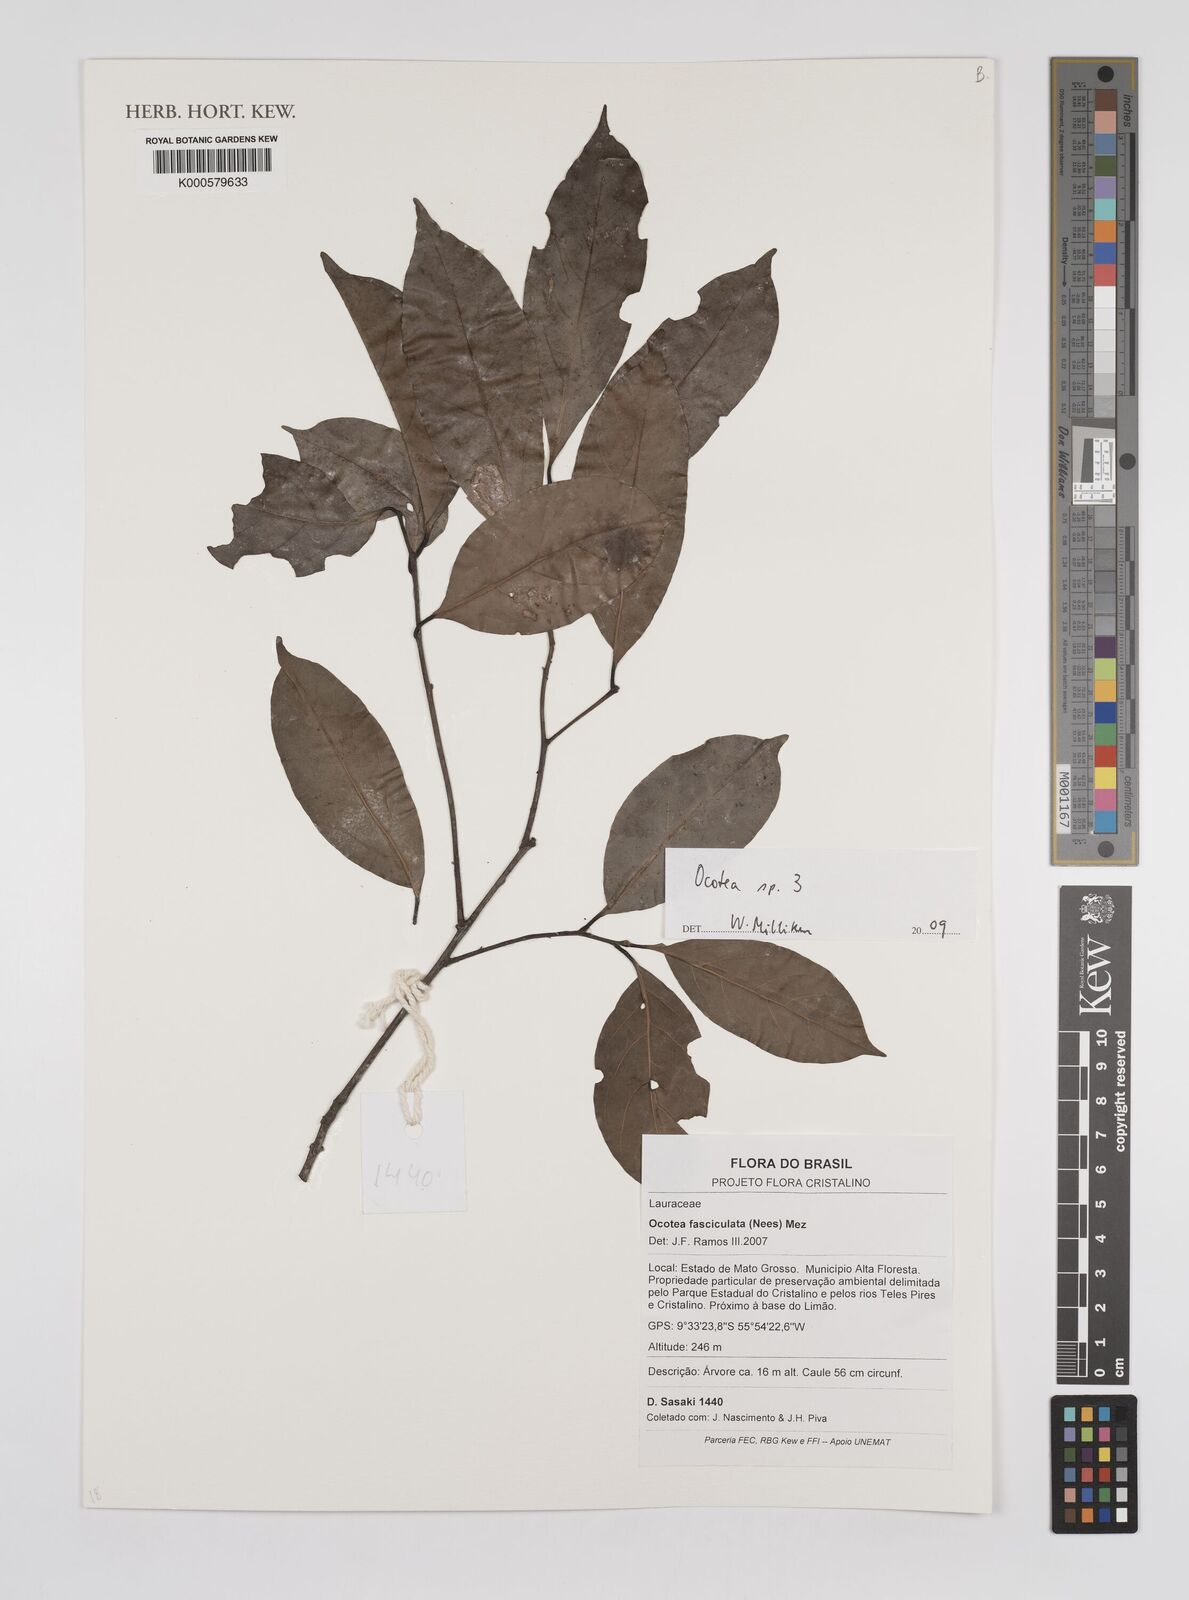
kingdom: Plantae
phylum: Tracheophyta
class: Magnoliopsida
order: Laurales
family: Lauraceae
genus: Ocotea
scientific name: Ocotea
